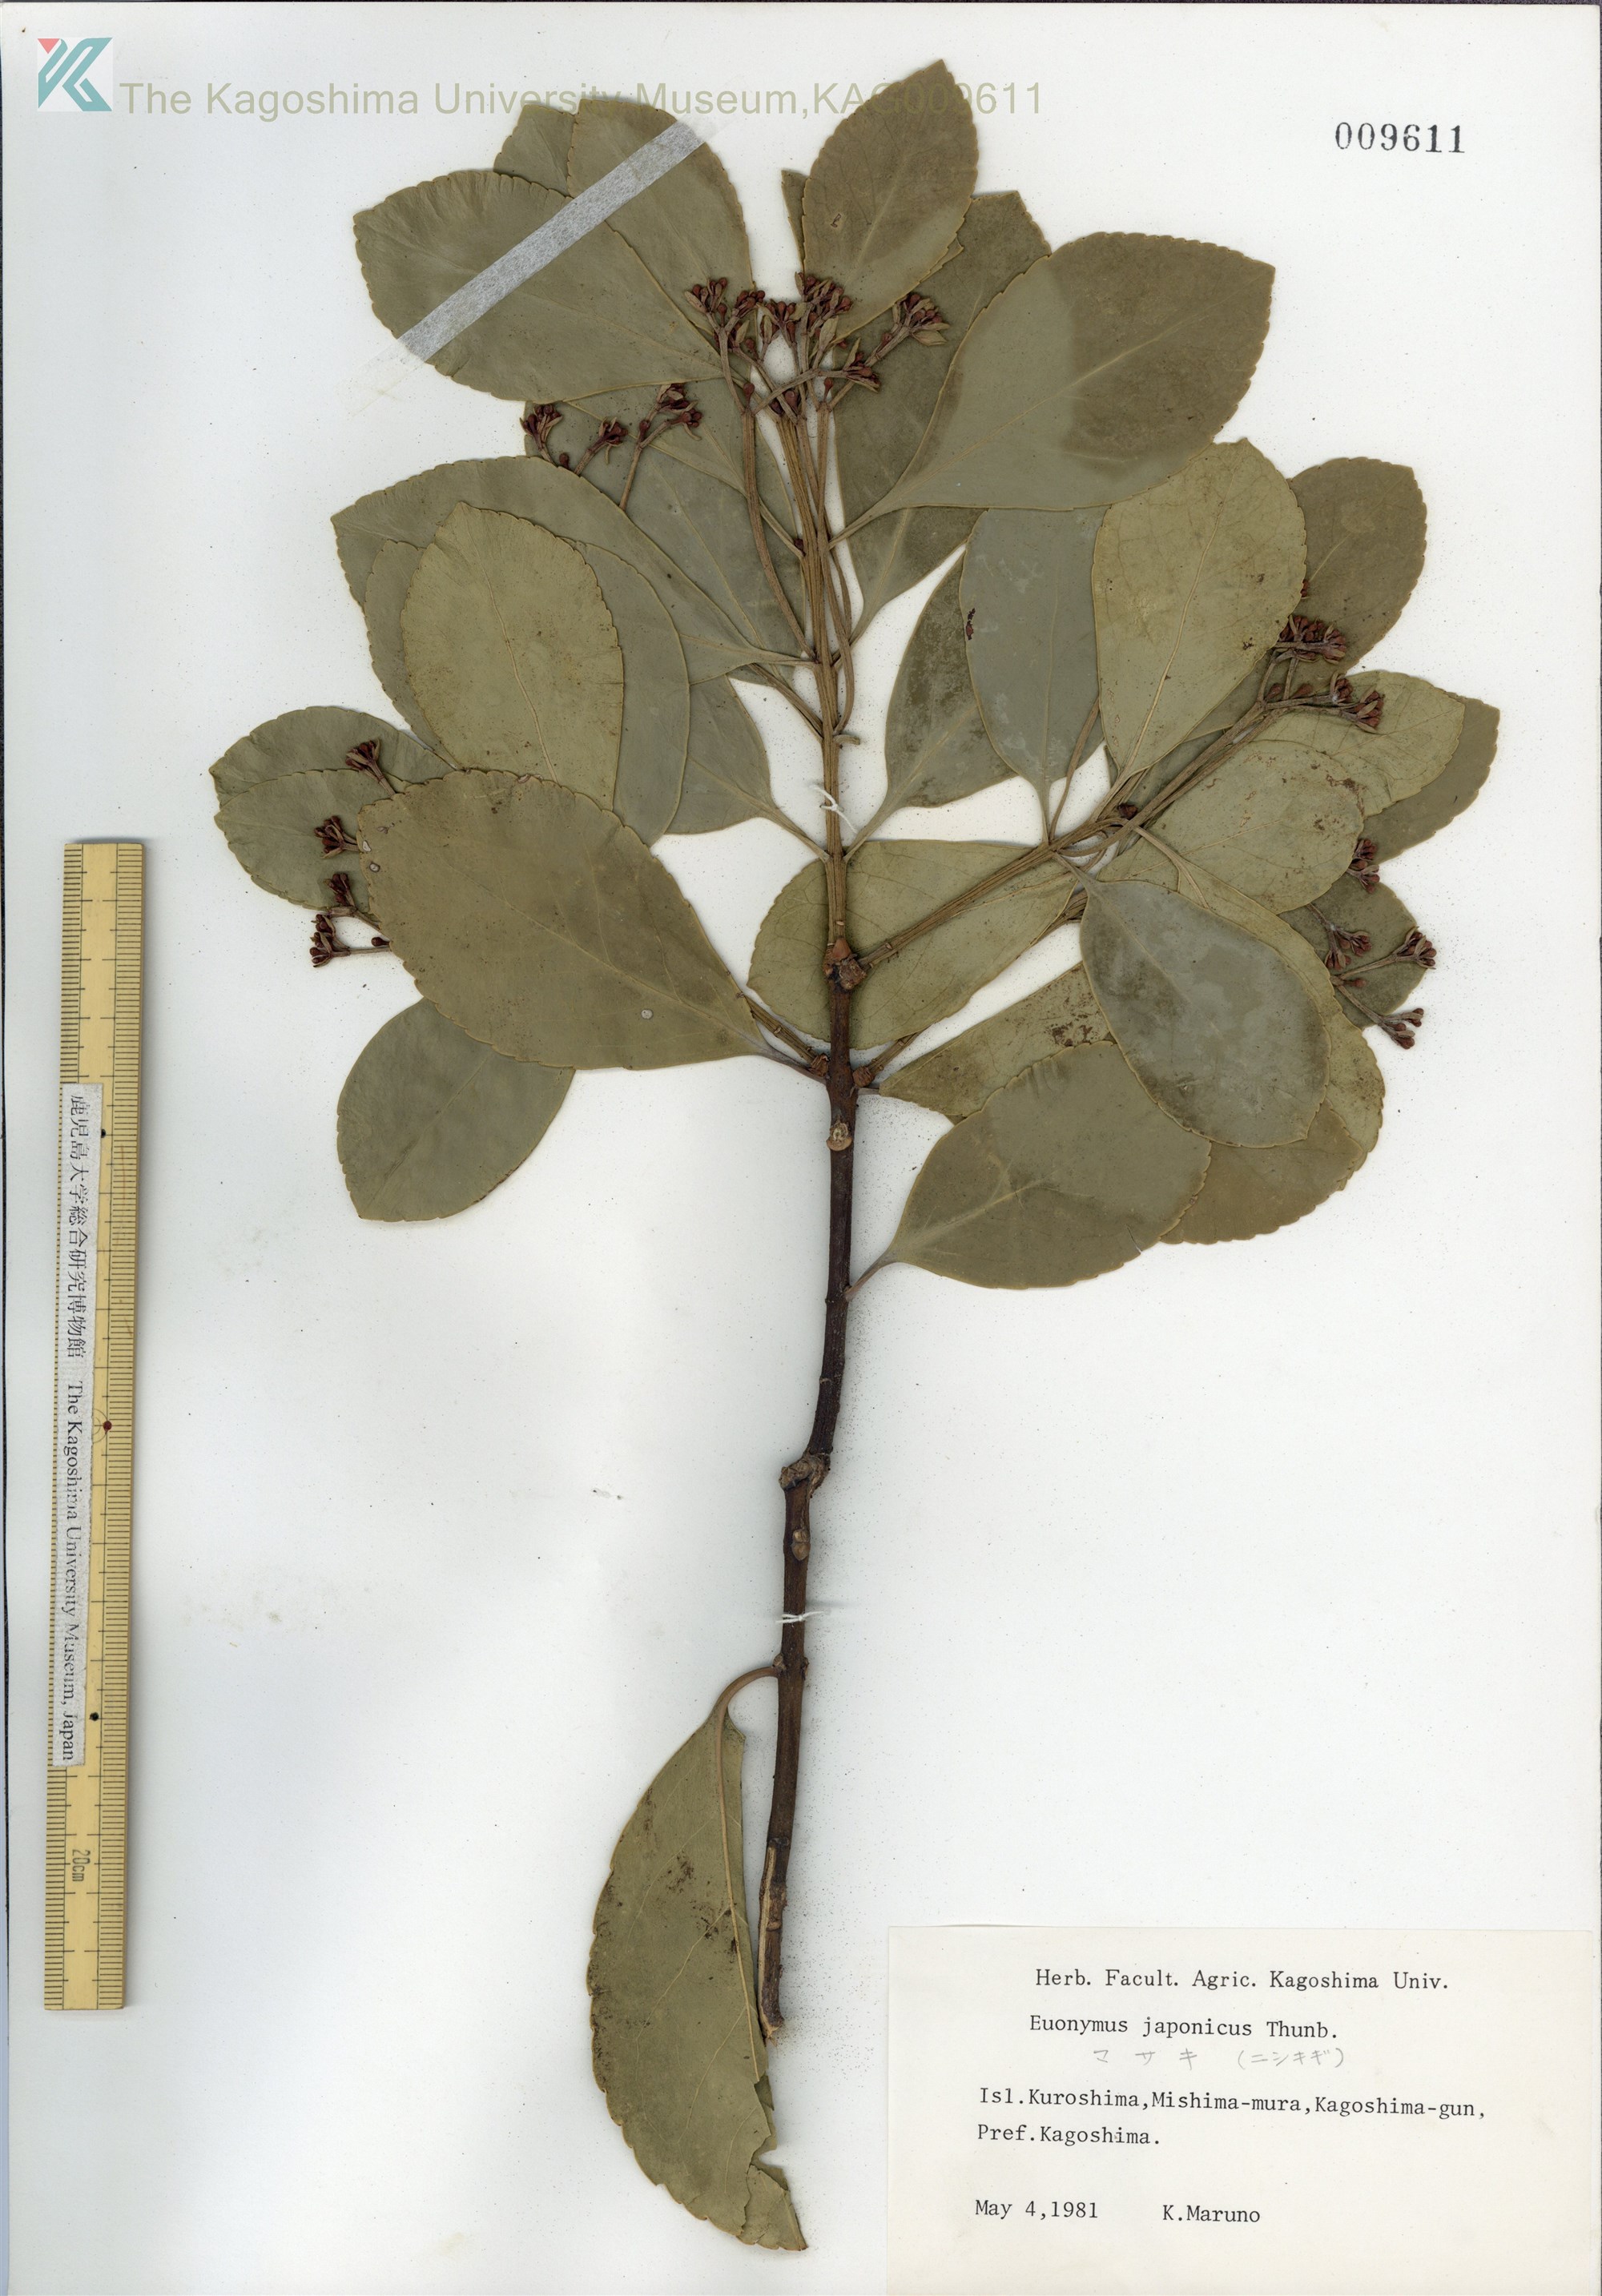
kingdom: Plantae
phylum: Tracheophyta
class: Magnoliopsida
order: Celastrales
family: Celastraceae
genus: Euonymus
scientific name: Euonymus japonicus
